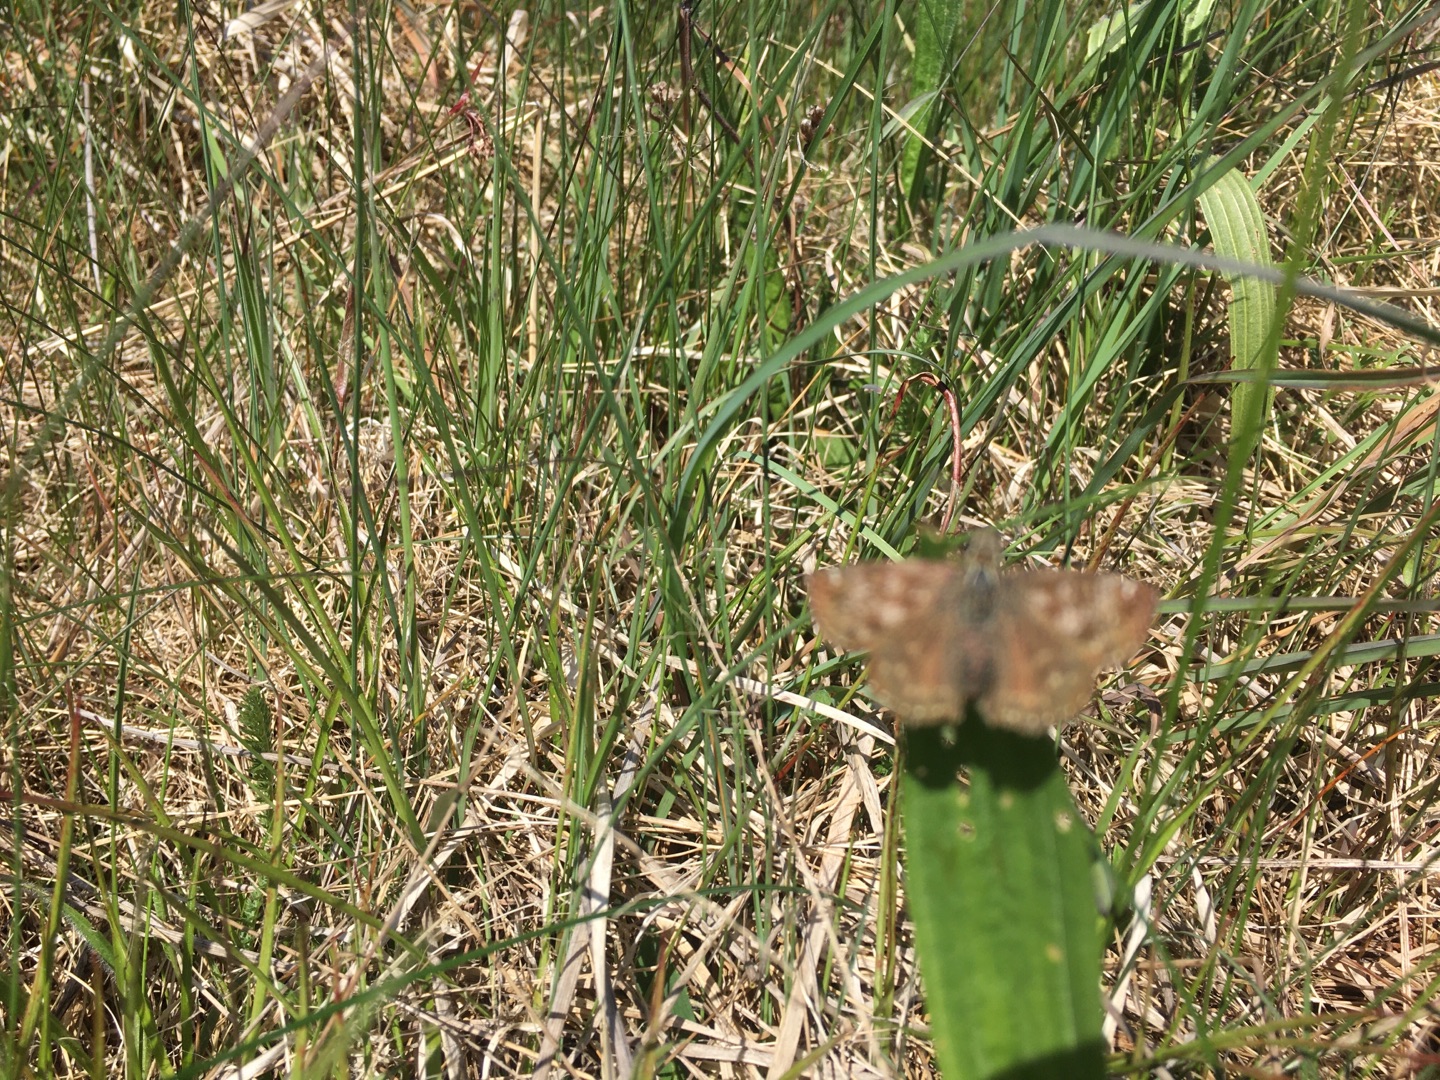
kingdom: Animalia
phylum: Arthropoda
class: Insecta
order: Lepidoptera
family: Hesperiidae
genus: Erynnis
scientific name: Erynnis tages
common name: Gråbåndet bredpande
